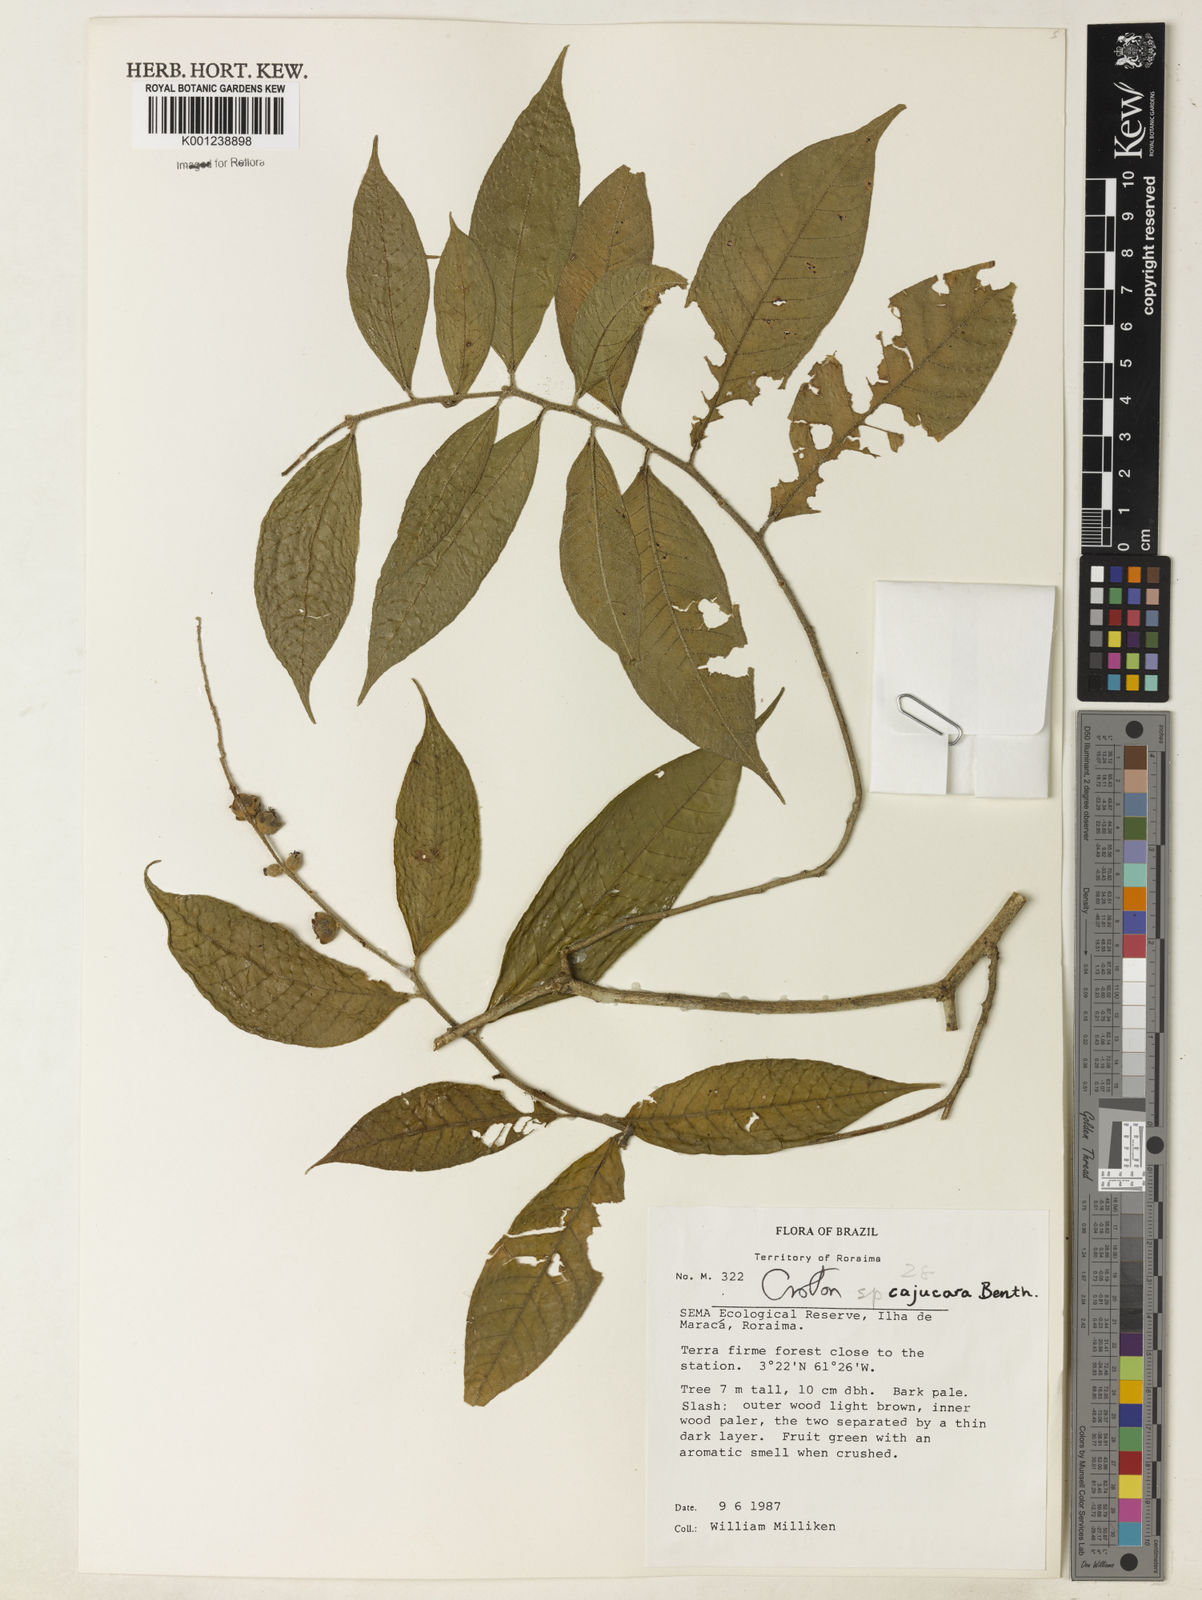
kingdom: Plantae
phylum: Tracheophyta
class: Magnoliopsida
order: Malpighiales
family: Euphorbiaceae
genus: Croton
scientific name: Croton cajucara
